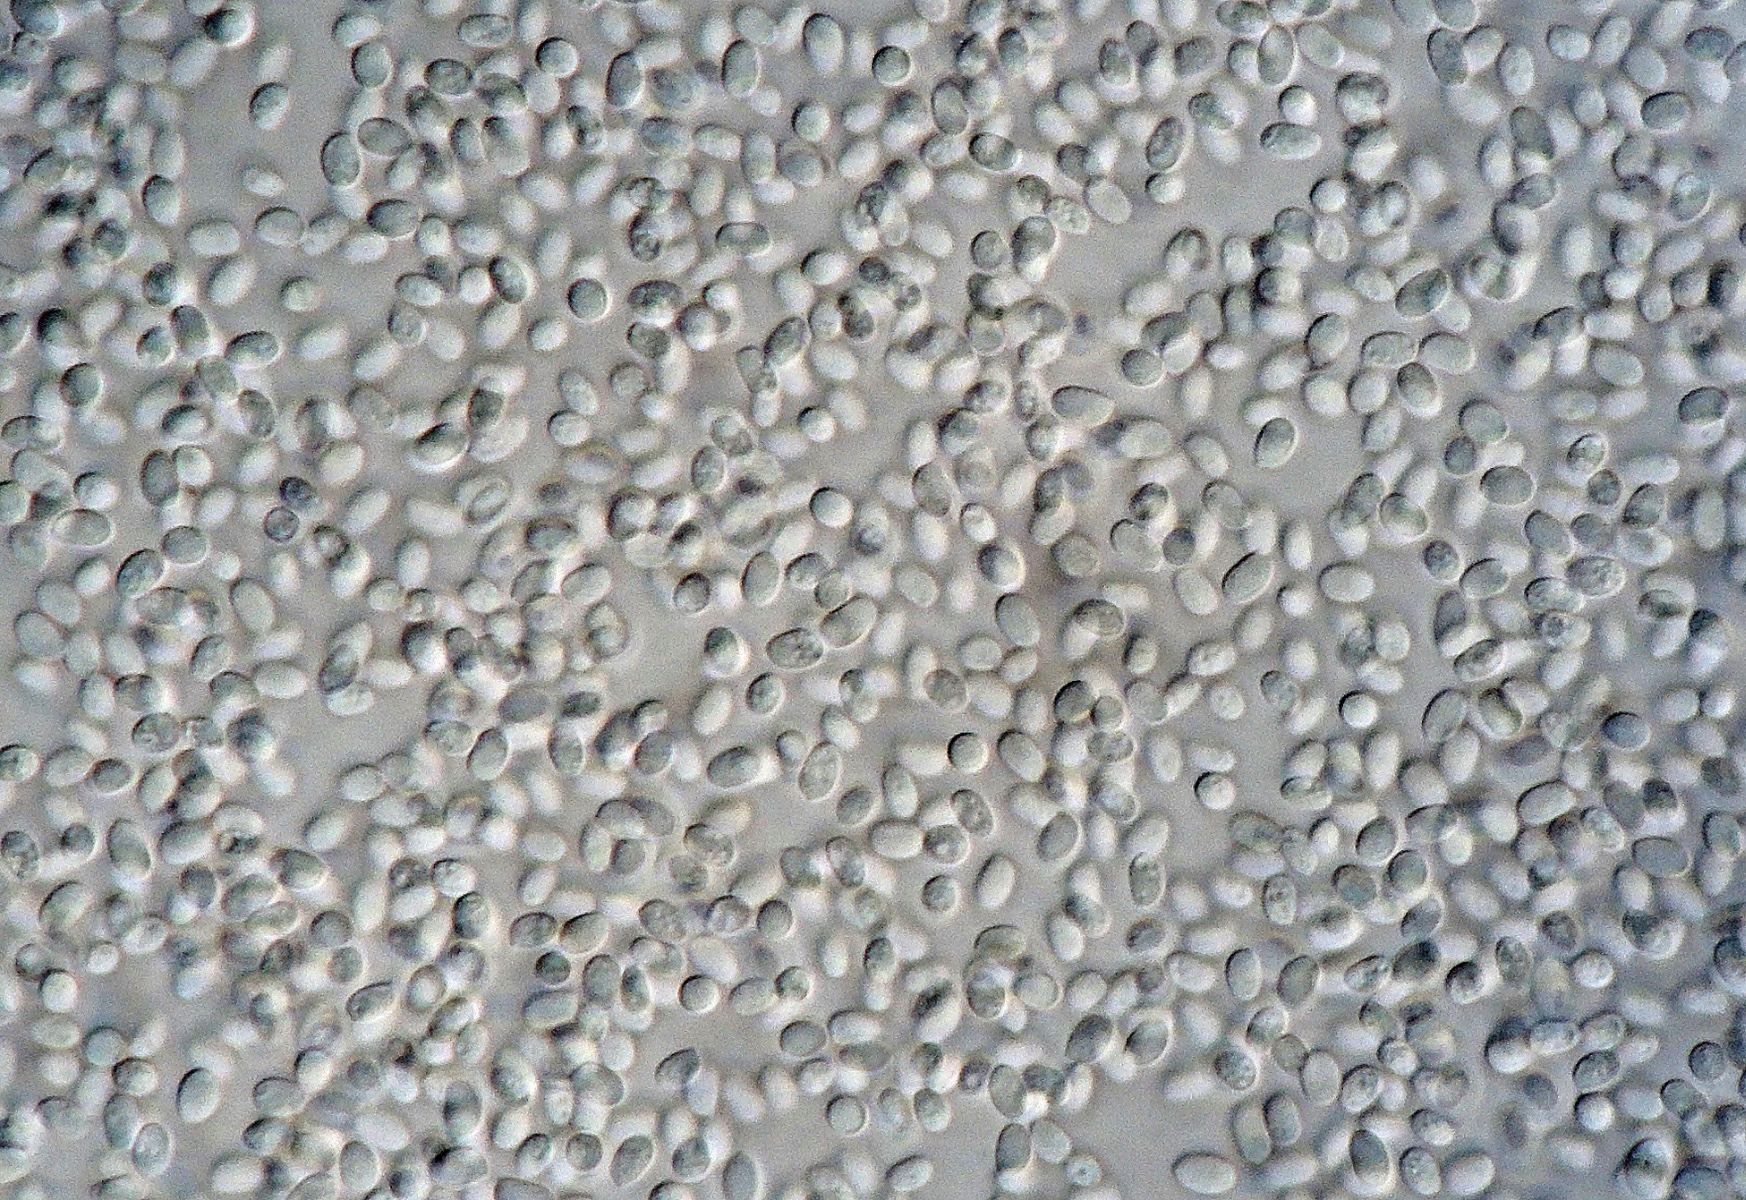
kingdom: Fungi
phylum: Basidiomycota
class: Agaricomycetes
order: Polyporales
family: Phanerochaetaceae
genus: Bjerkandera
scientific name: Bjerkandera adusta
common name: sveden sodporesvamp
